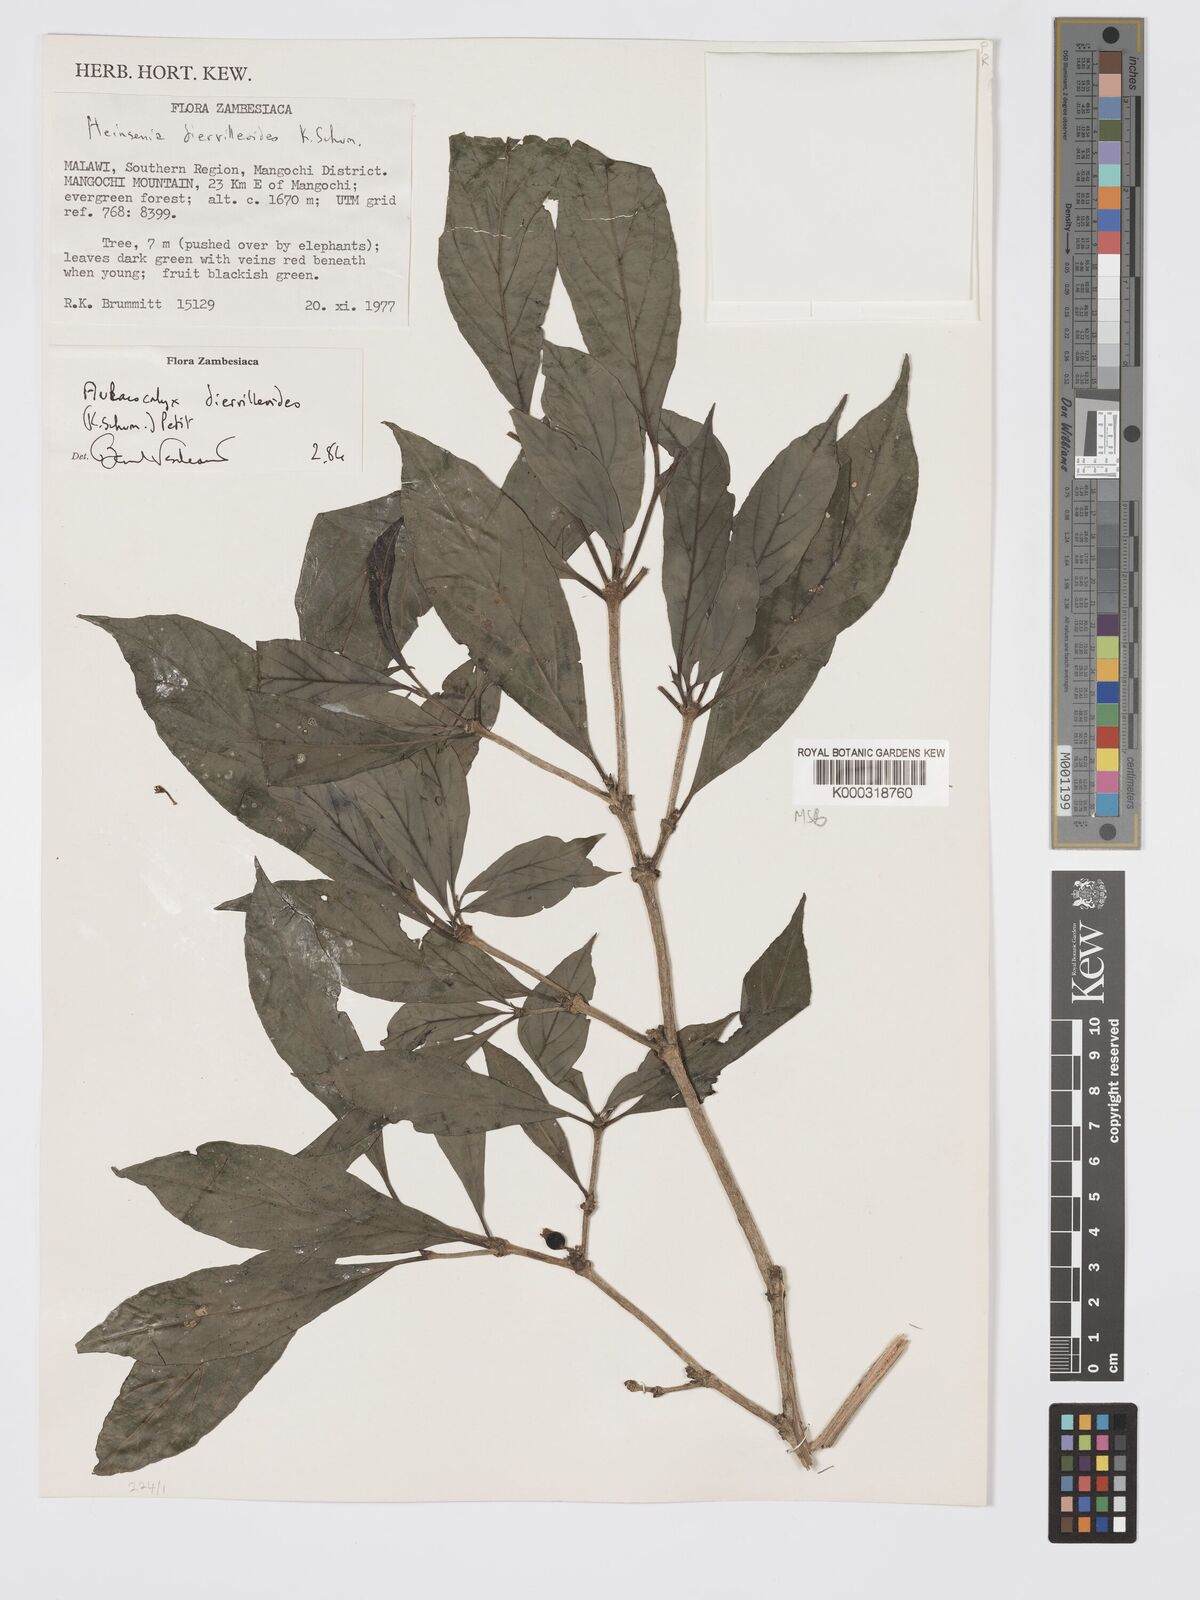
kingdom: Plantae
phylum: Tracheophyta
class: Magnoliopsida
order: Gentianales
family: Rubiaceae
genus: Heinsenia
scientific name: Heinsenia diervilleoides
